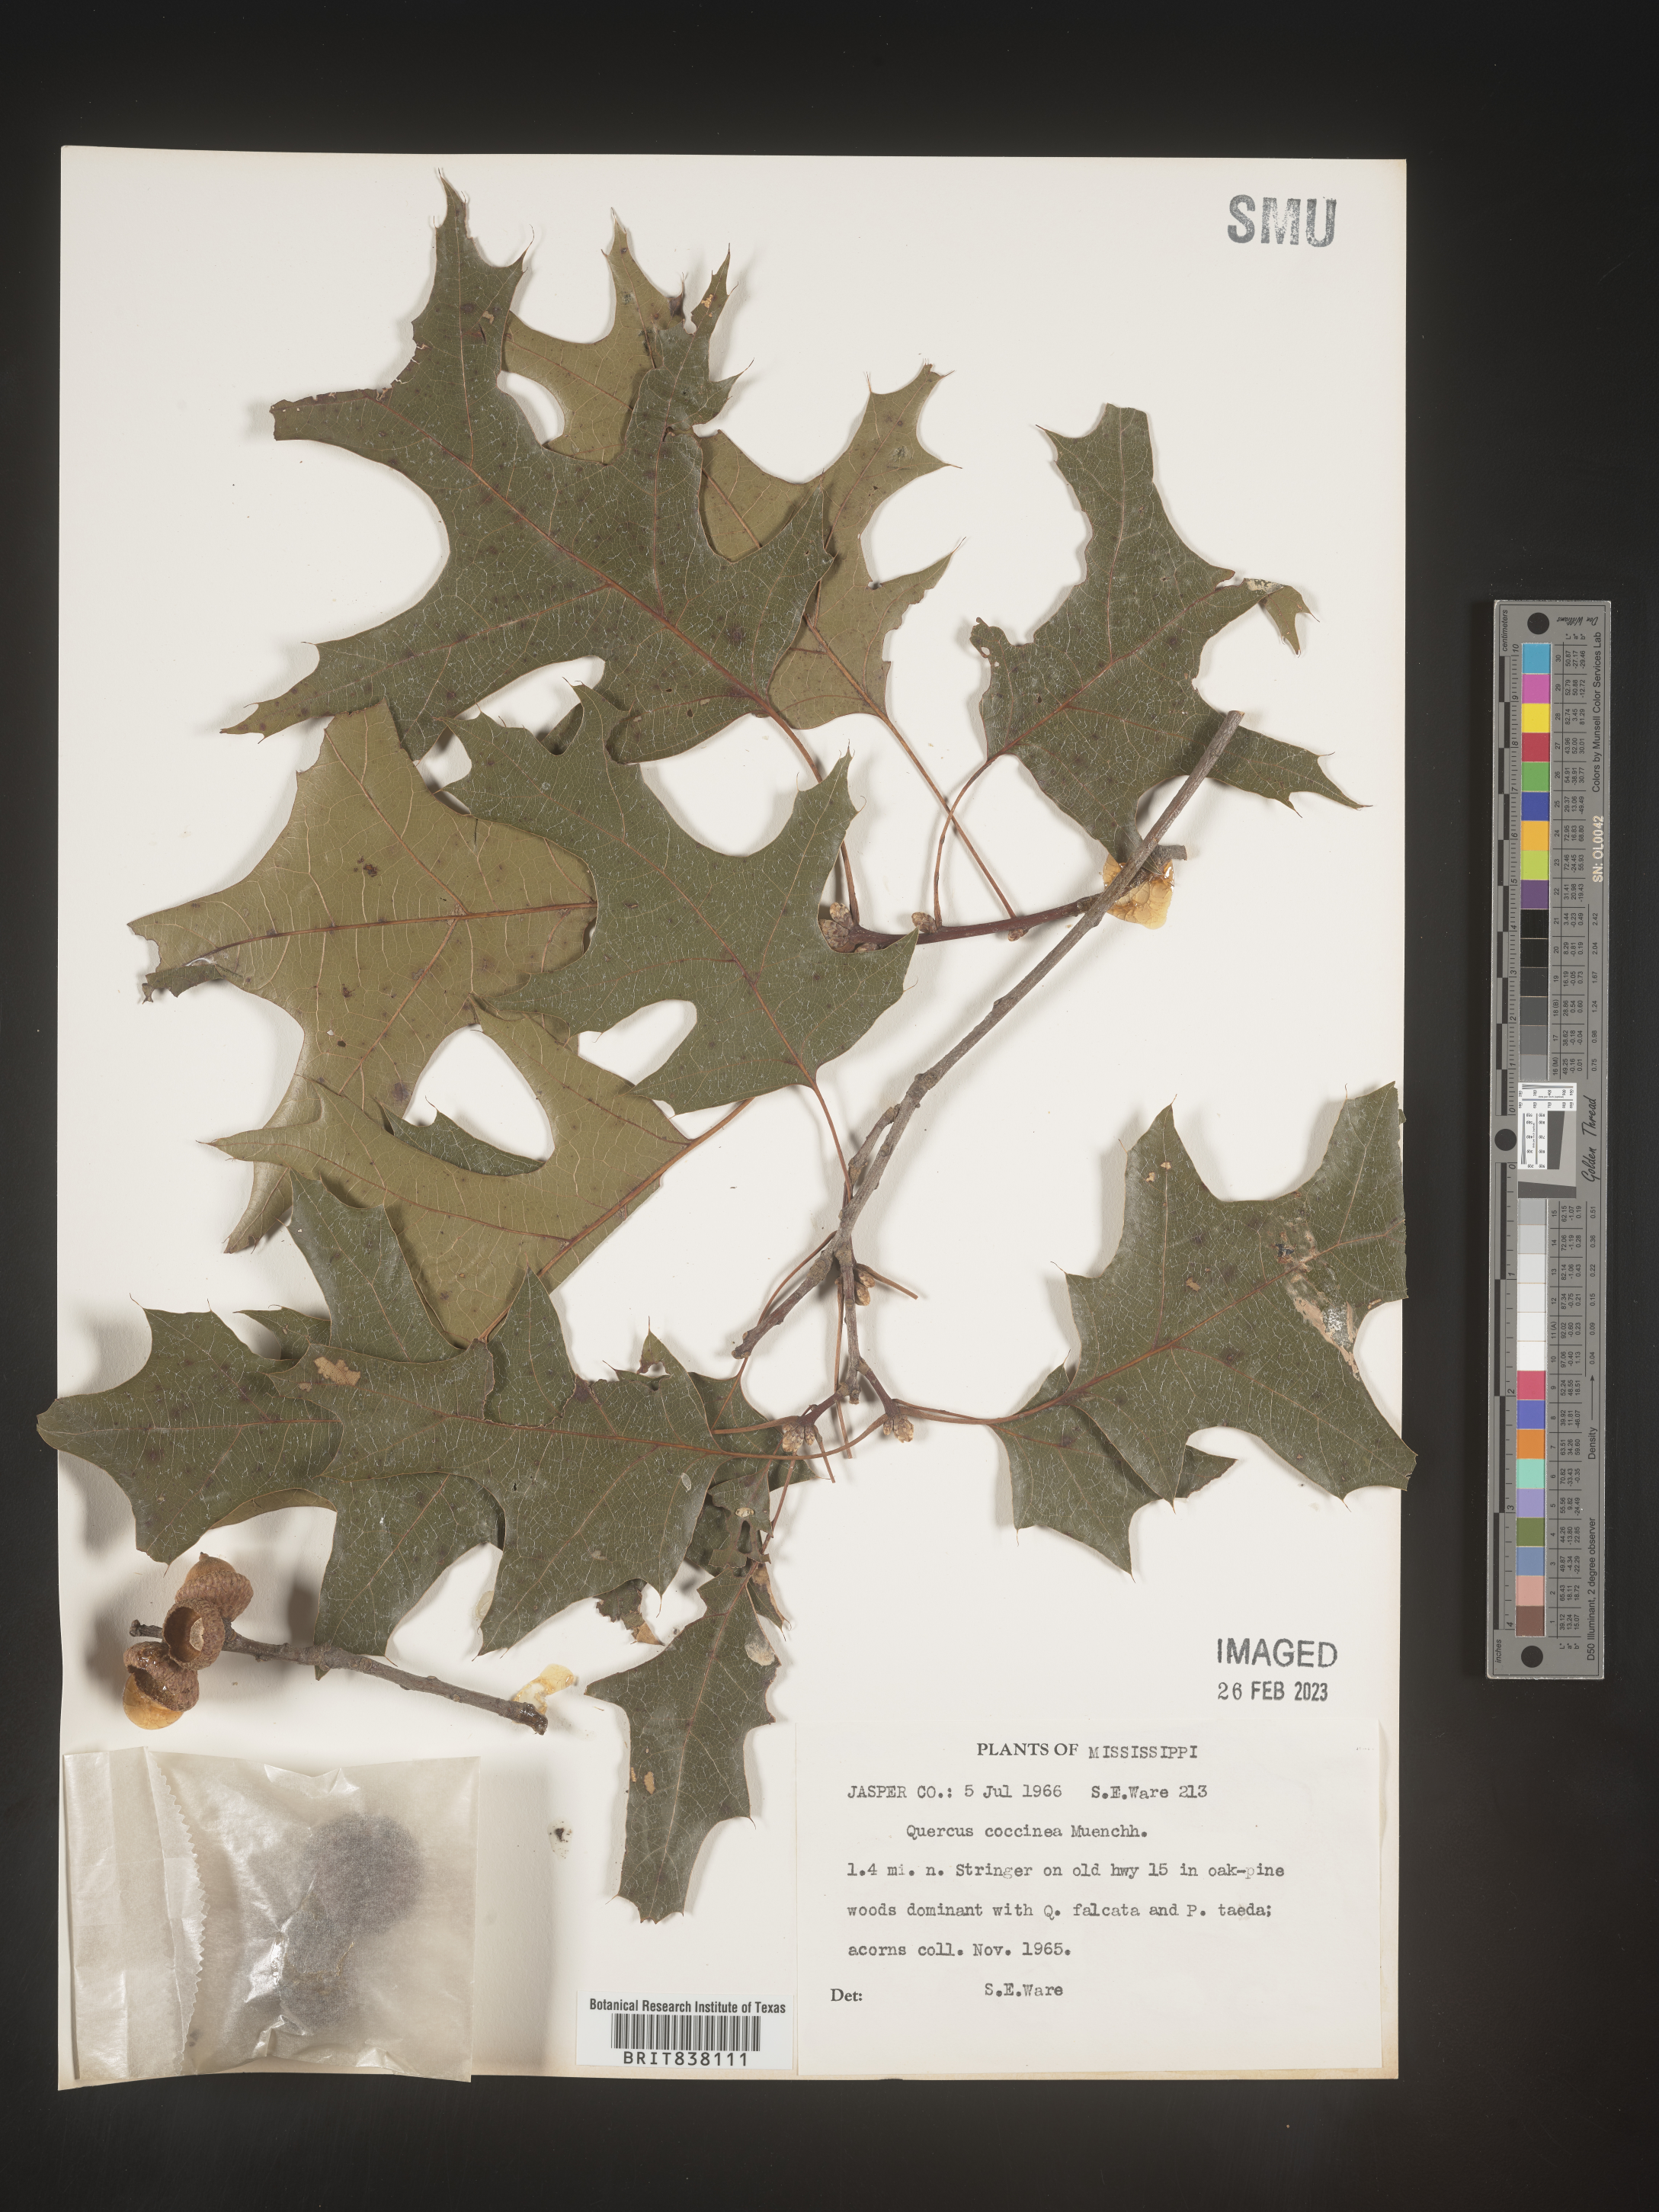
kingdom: Plantae
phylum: Tracheophyta
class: Magnoliopsida
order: Fagales
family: Fagaceae
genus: Quercus
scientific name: Quercus coccinea
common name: Scarlet oak
